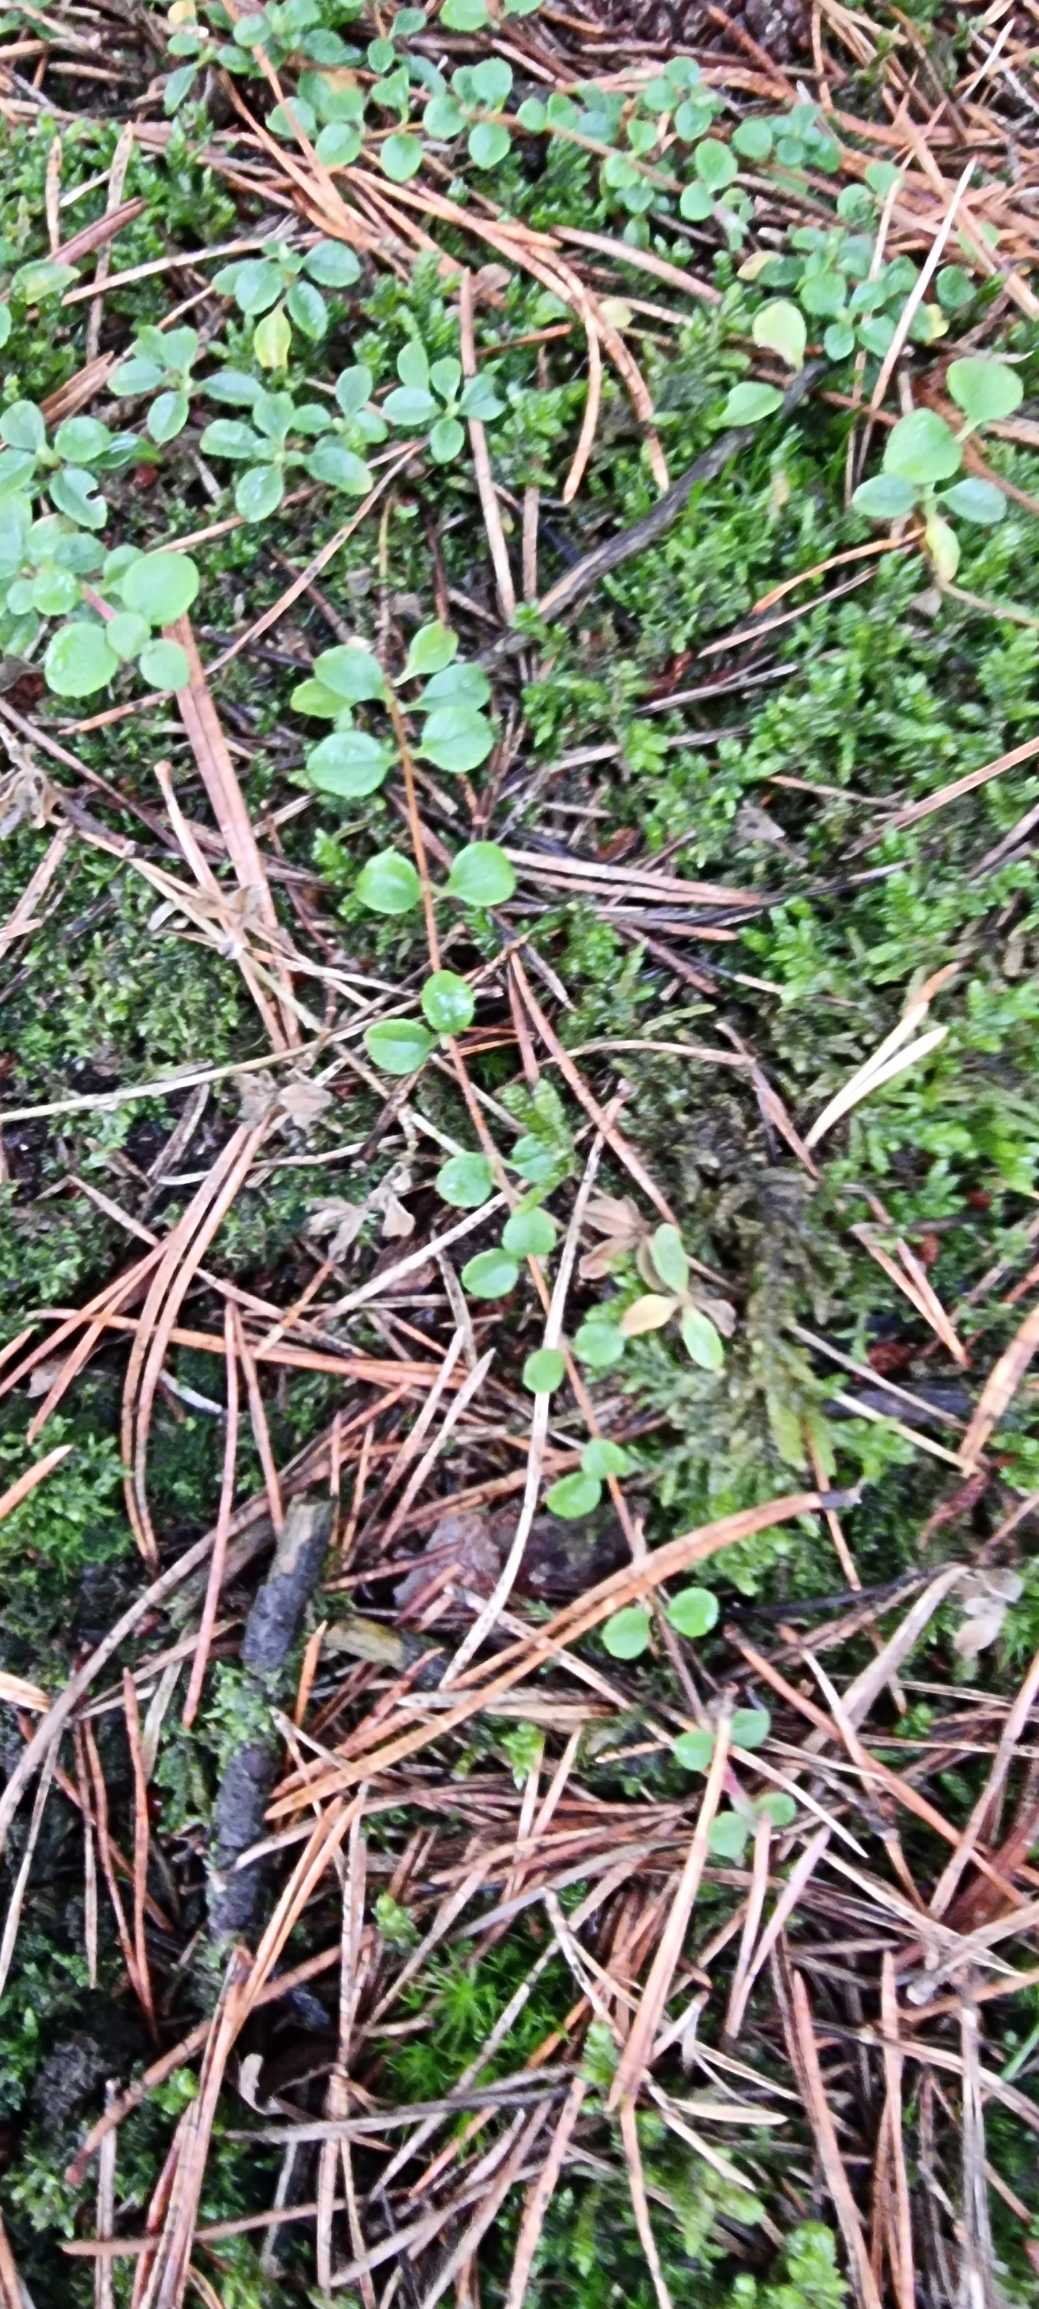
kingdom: Plantae
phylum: Tracheophyta
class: Magnoliopsida
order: Dipsacales
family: Caprifoliaceae
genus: Linnaea
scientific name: Linnaea borealis
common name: Linnæa
